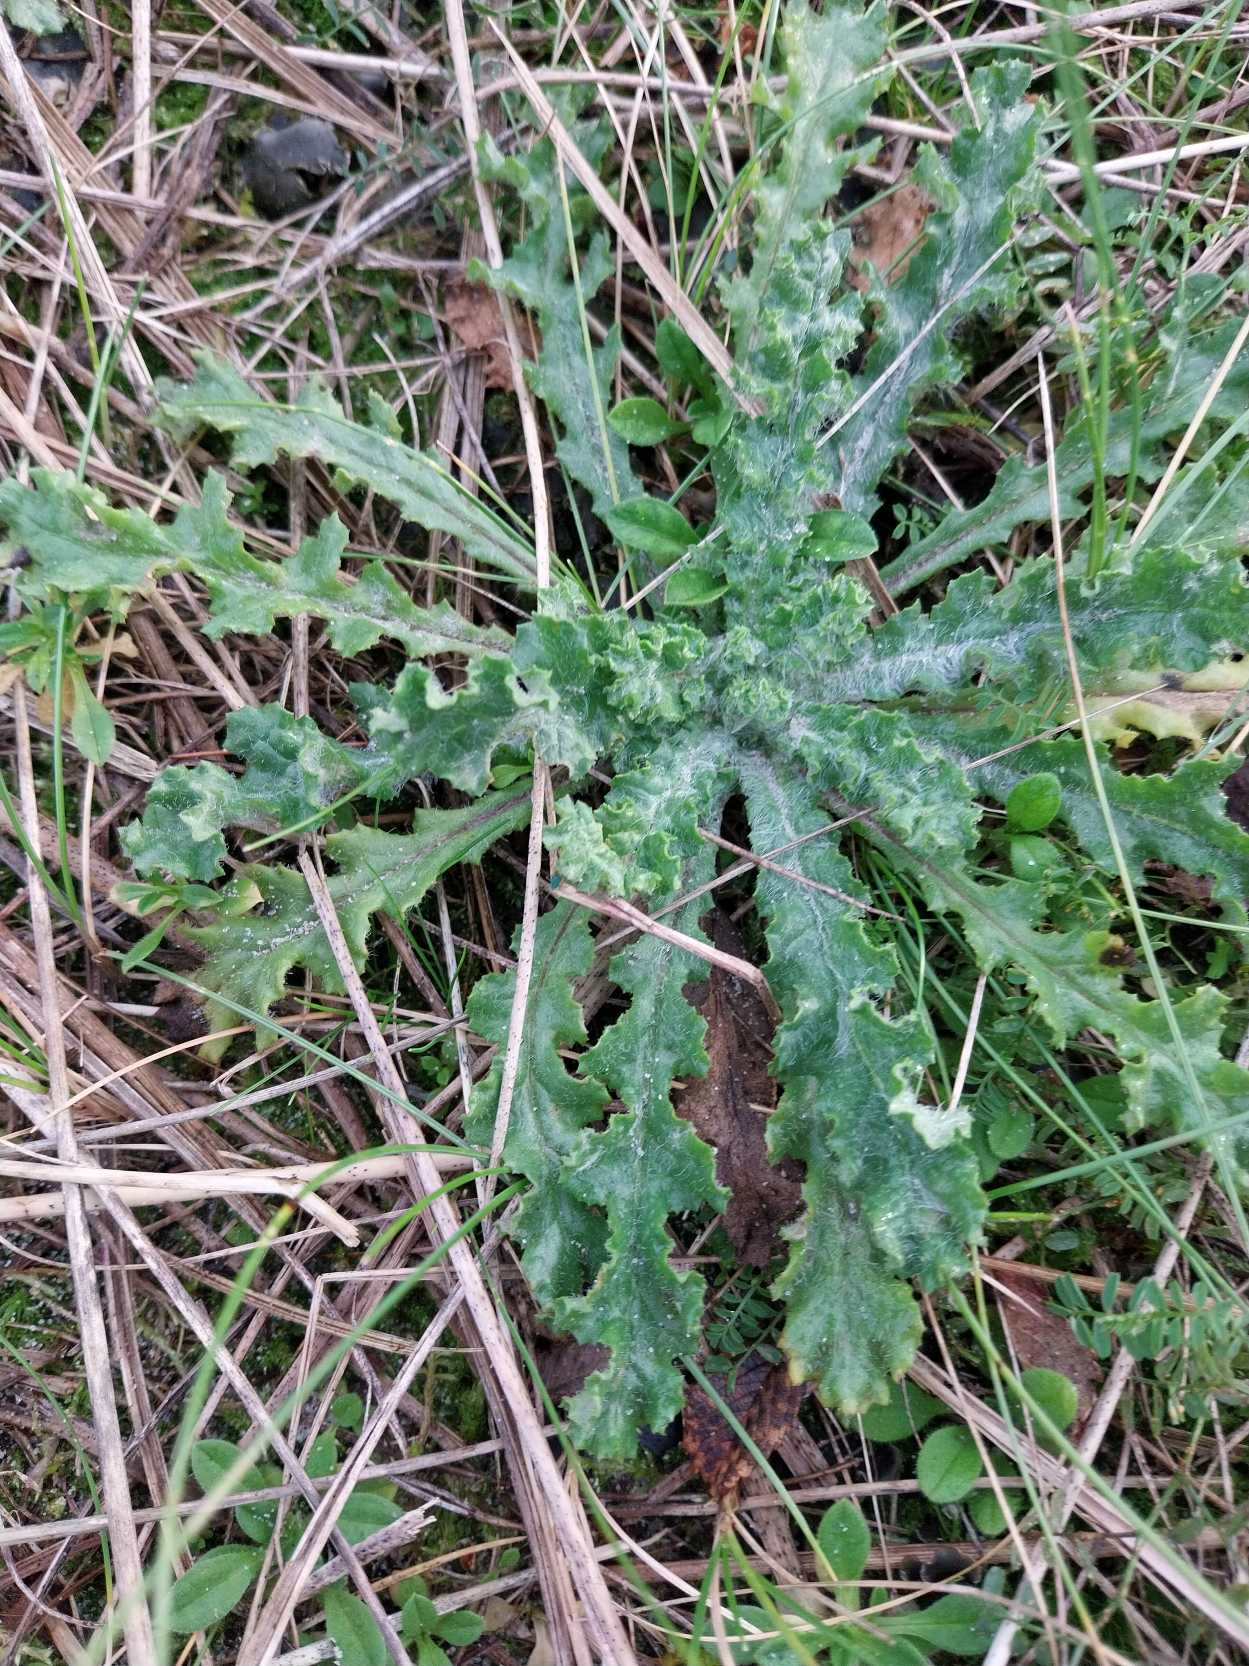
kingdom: Plantae
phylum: Tracheophyta
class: Magnoliopsida
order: Asterales
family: Asteraceae
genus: Senecio
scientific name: Senecio leucanthemifolius
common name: Vår-brandbæger
